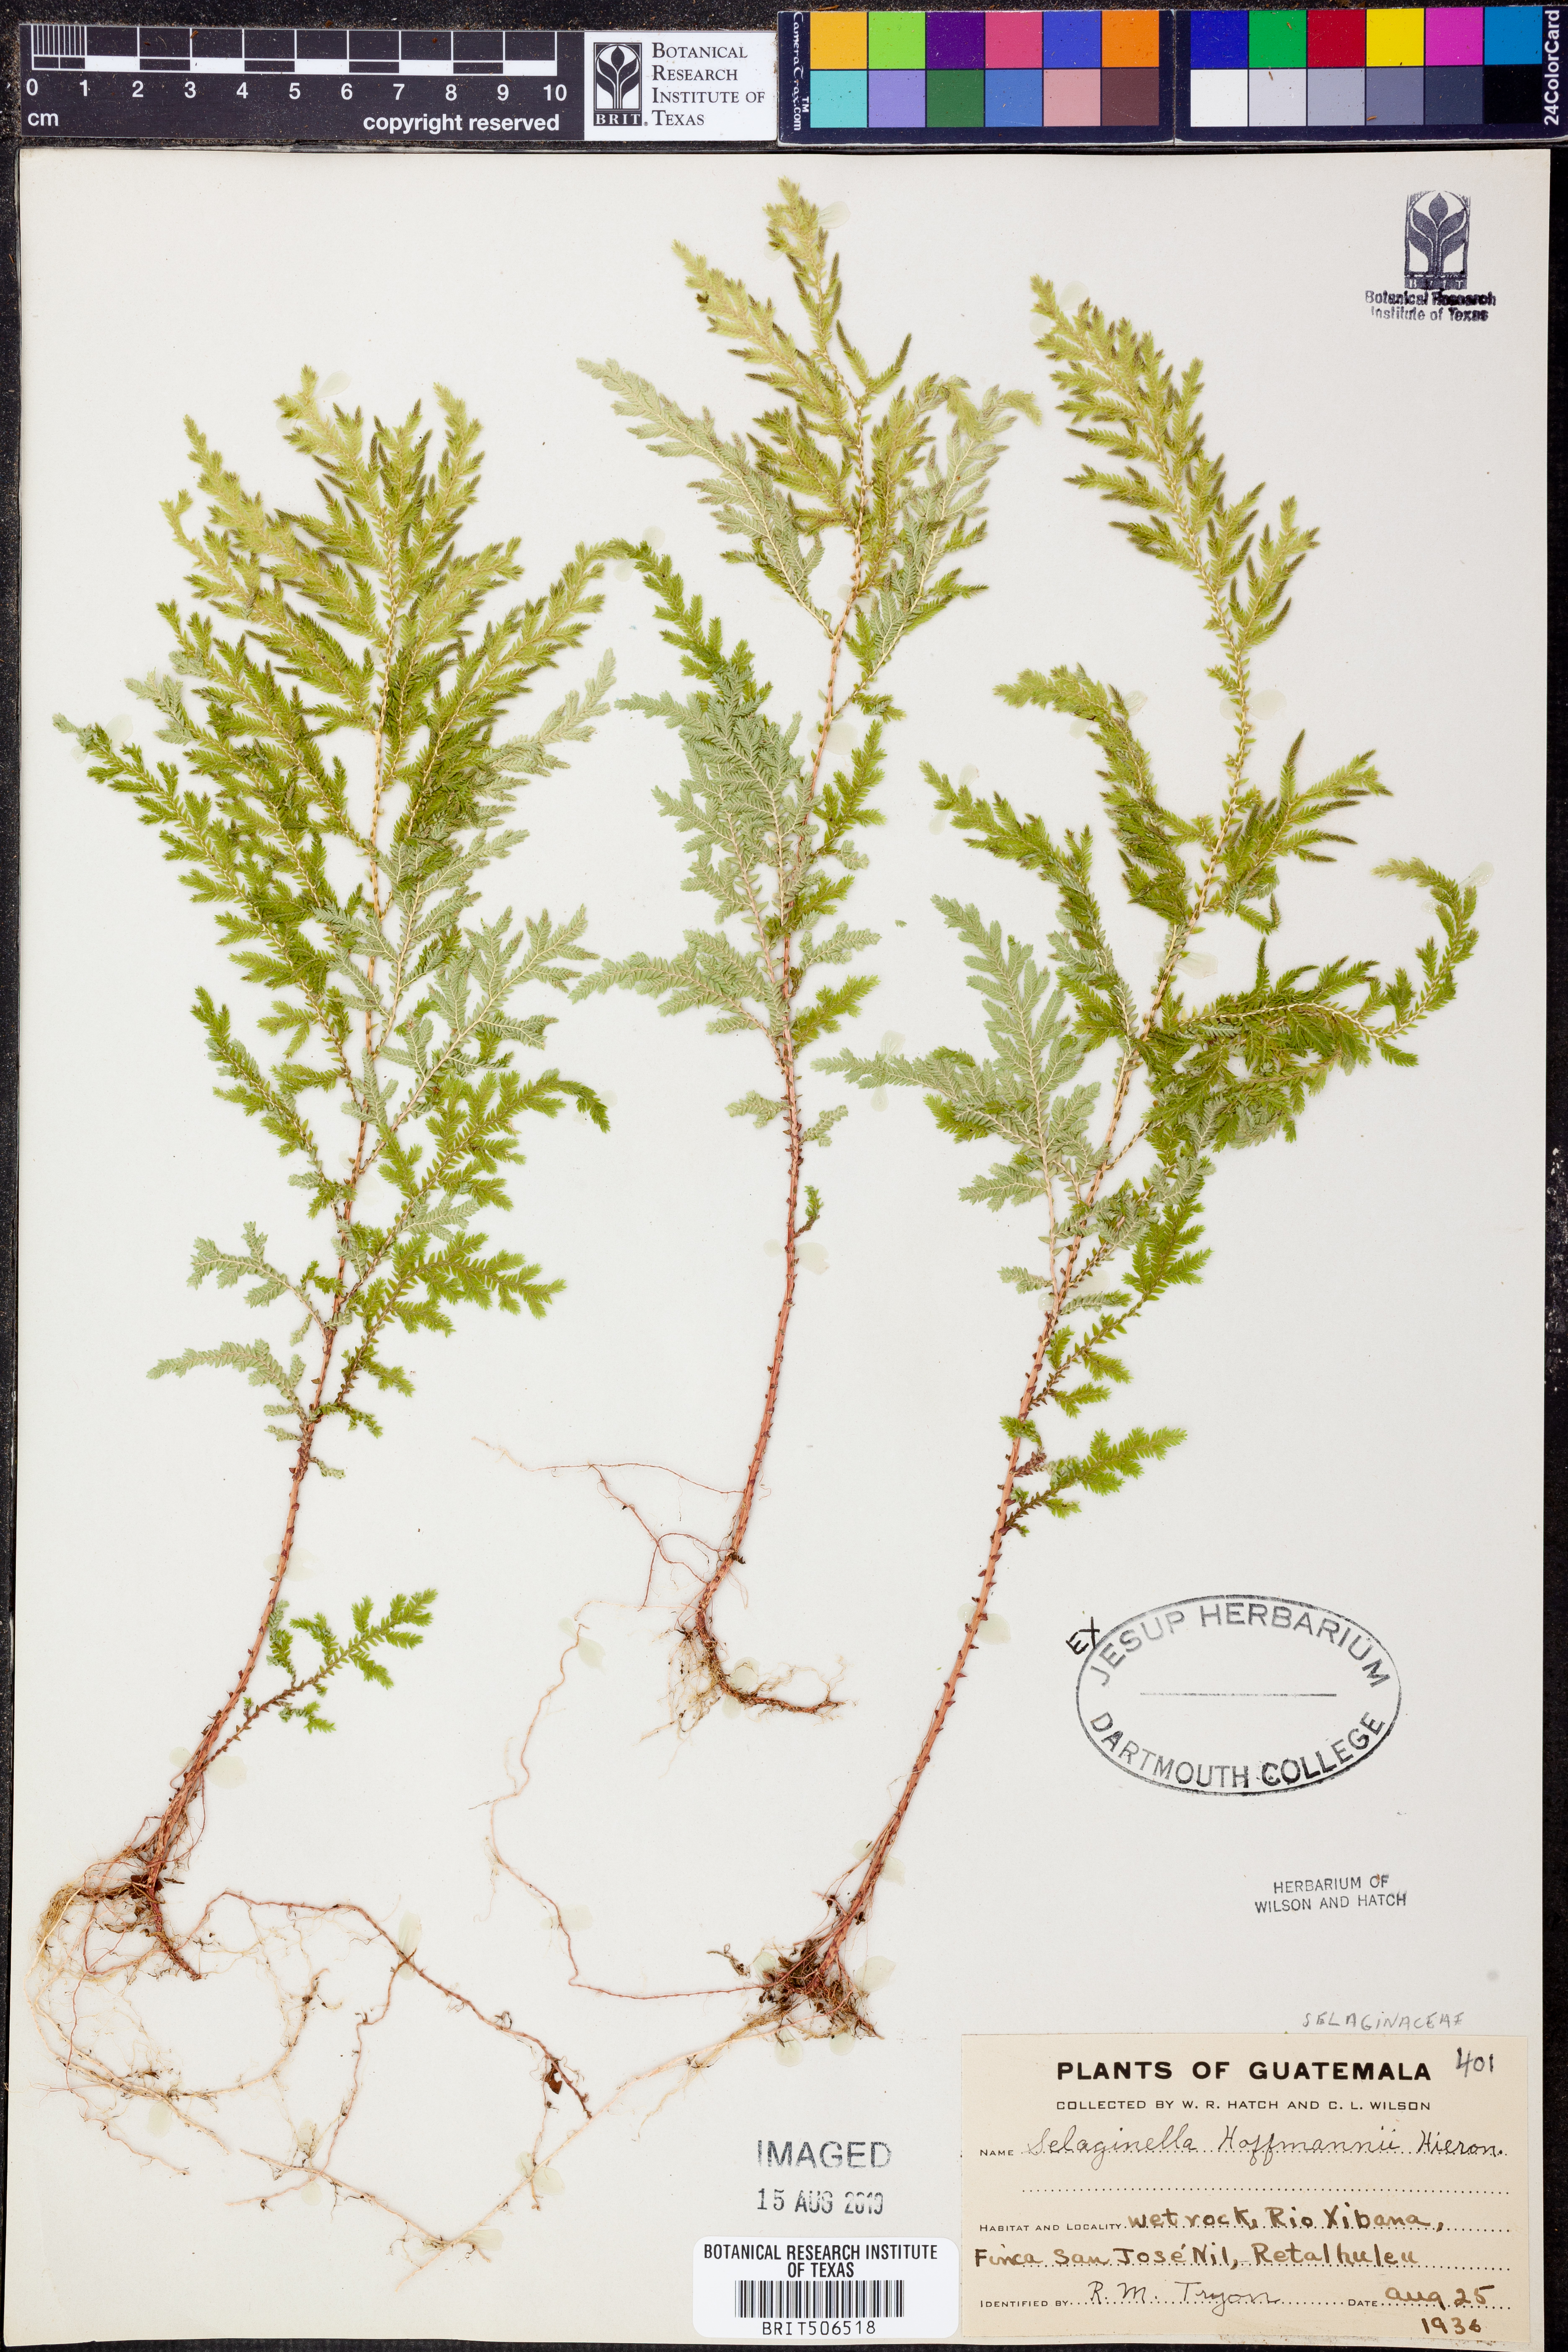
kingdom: Plantae
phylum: Tracheophyta
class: Lycopodiopsida
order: Selaginellales
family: Selaginellaceae
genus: Selaginella
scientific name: Selaginella hoffmannii
